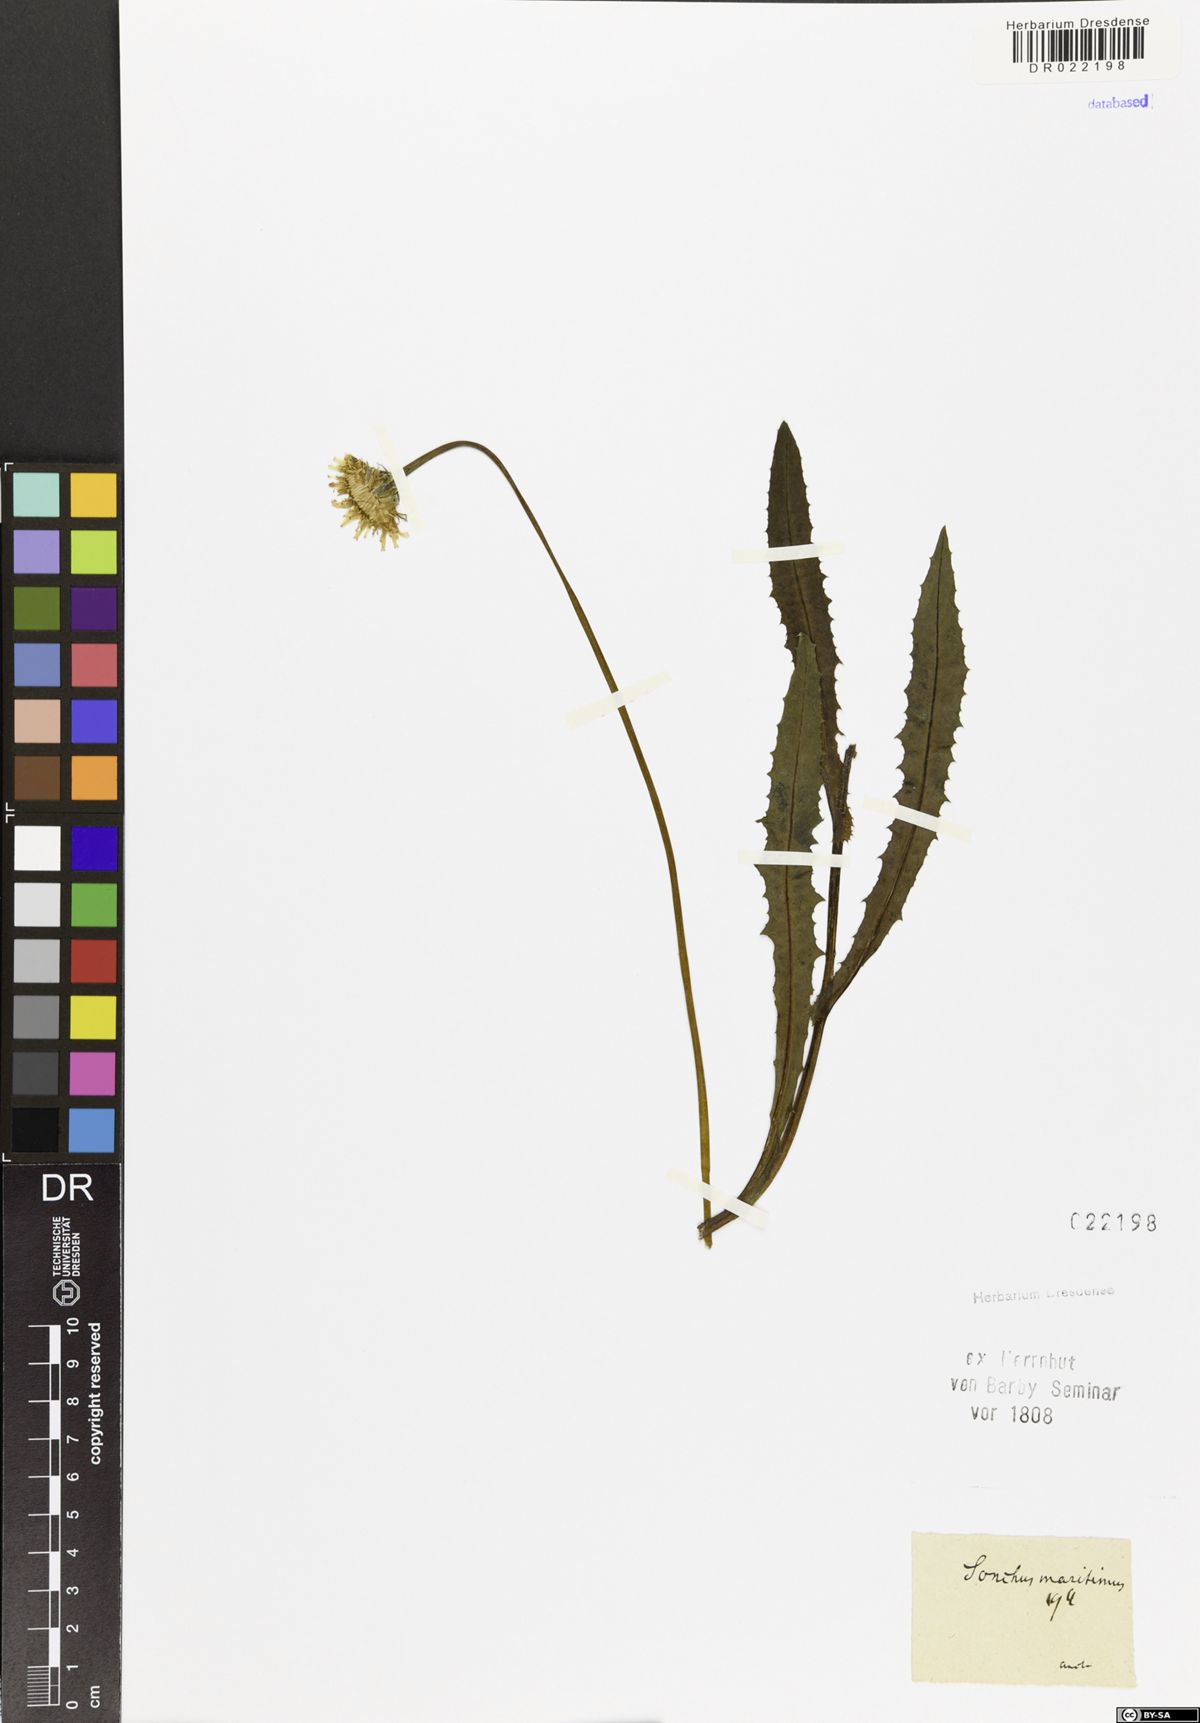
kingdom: Plantae
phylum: Tracheophyta
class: Magnoliopsida
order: Asterales
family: Asteraceae
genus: Sonchus
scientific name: Sonchus maritimus
